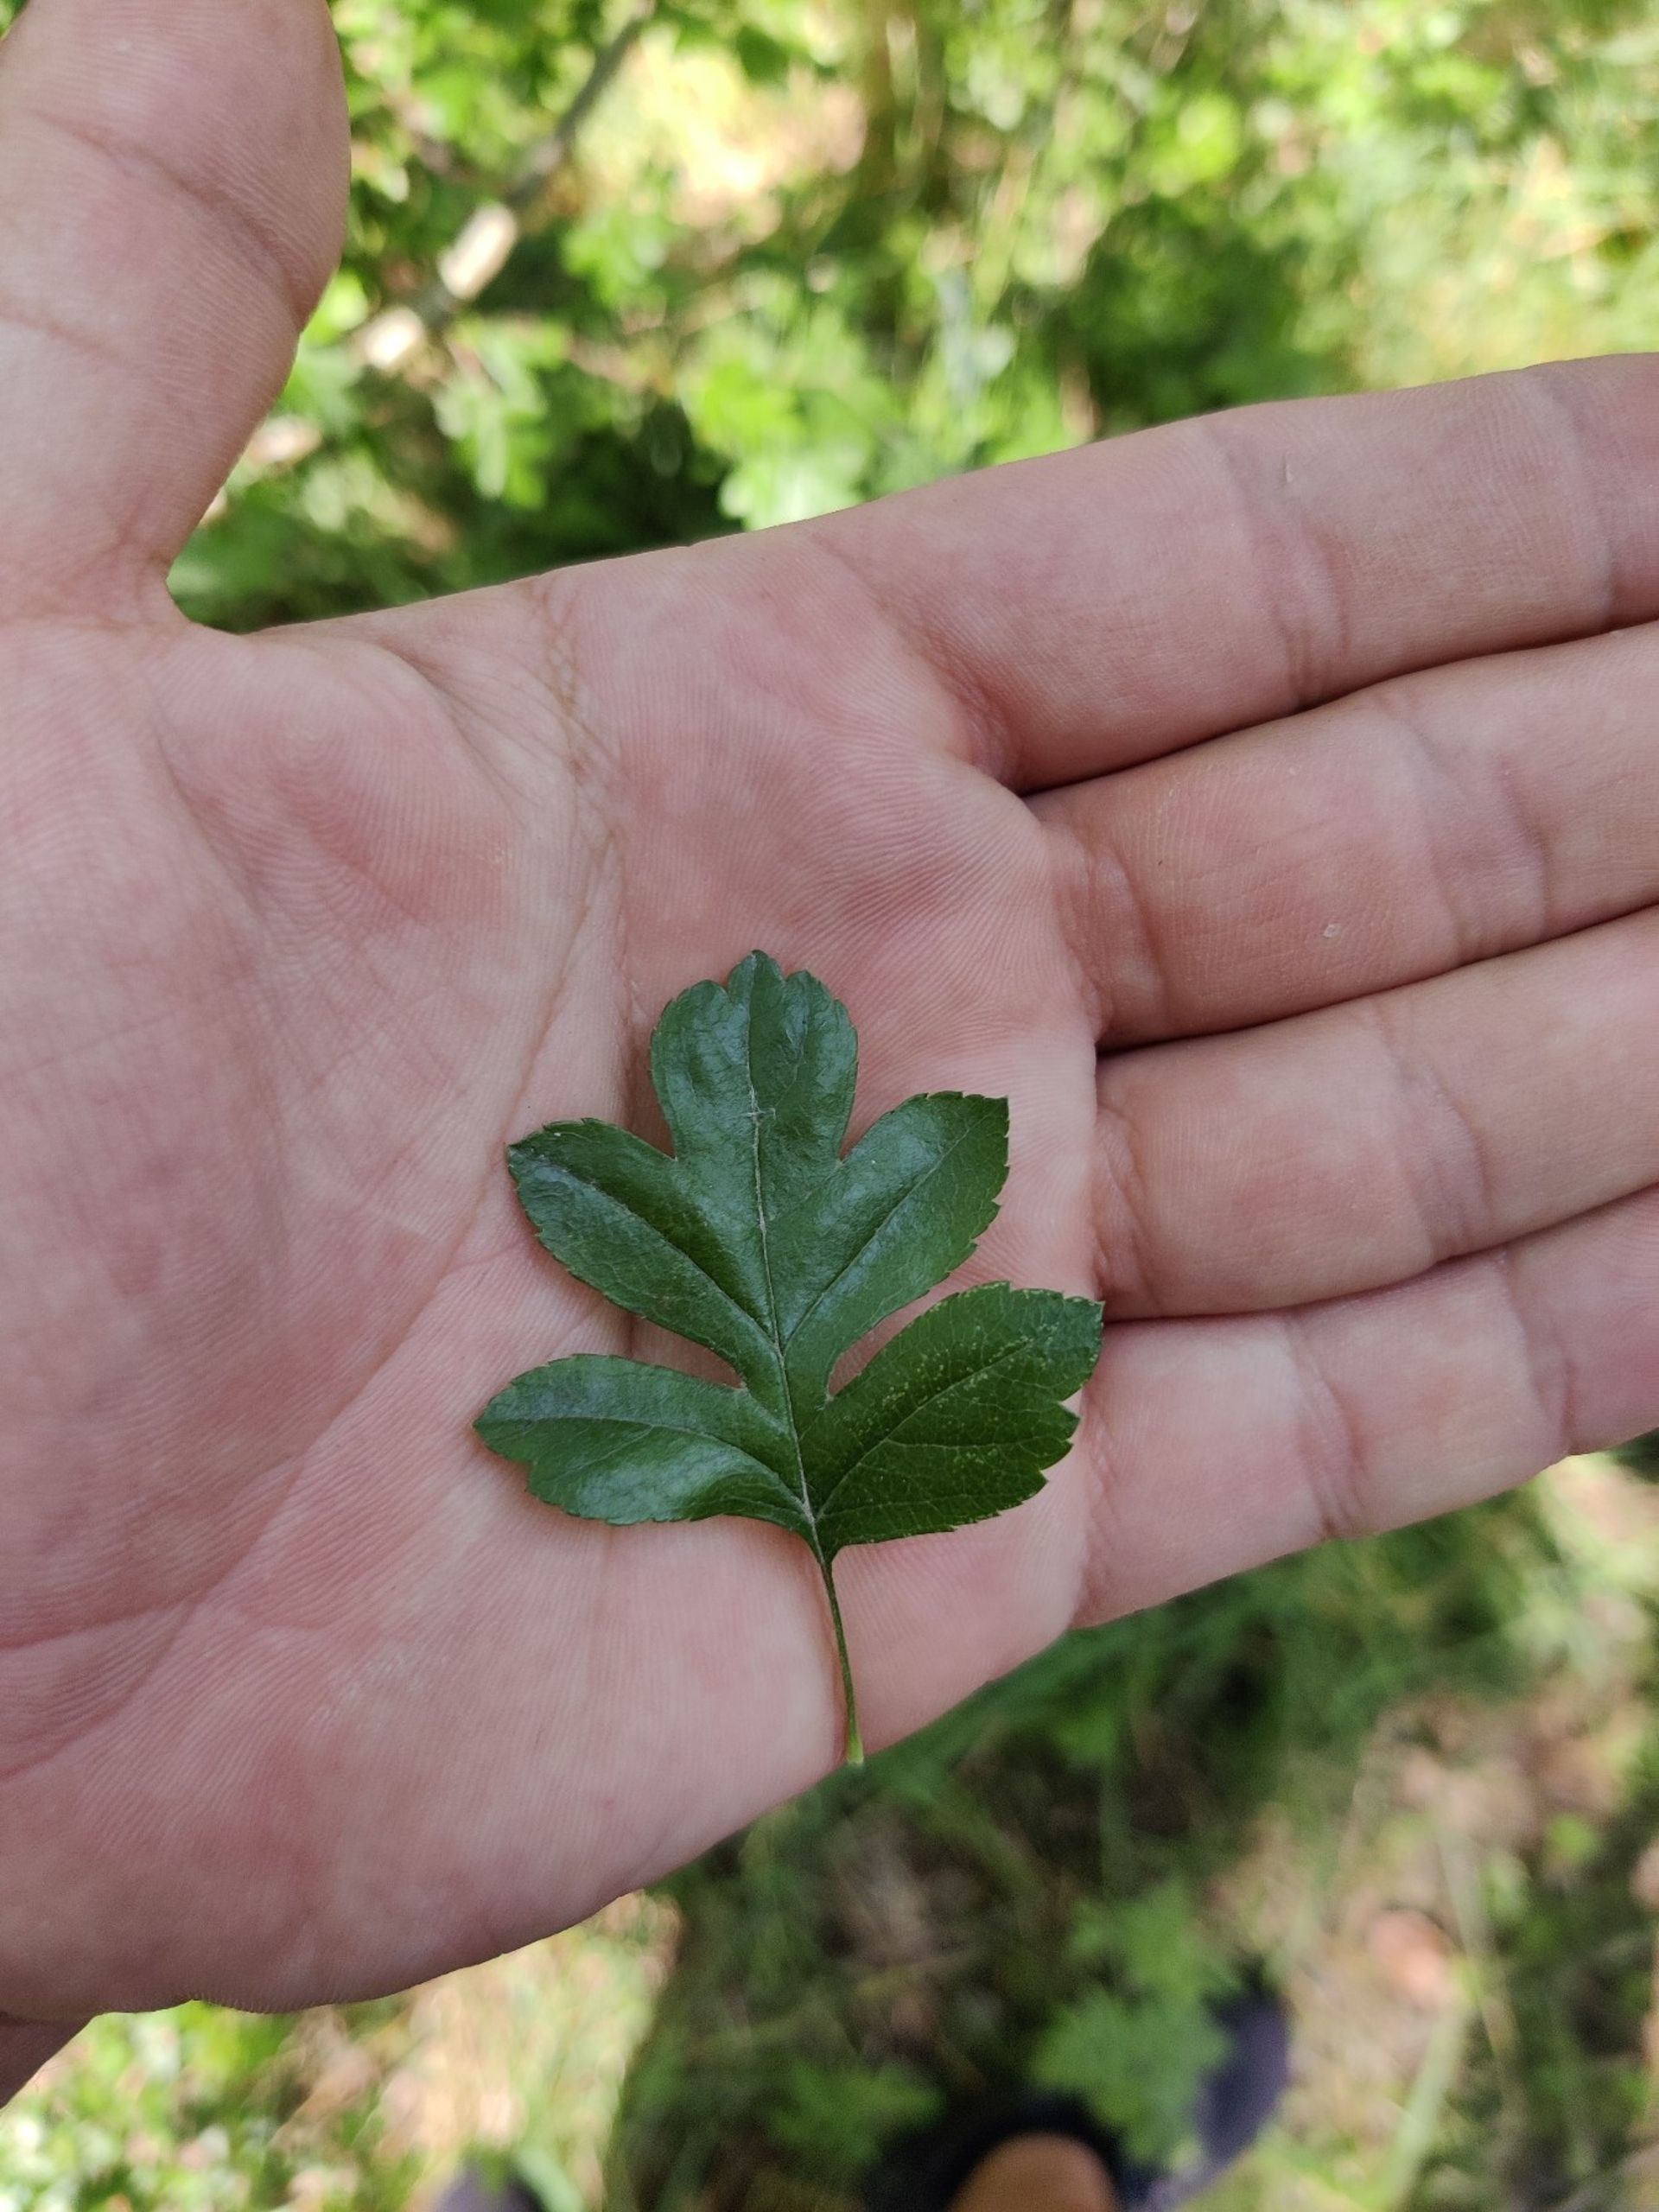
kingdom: Plantae
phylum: Tracheophyta
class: Magnoliopsida
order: Rosales
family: Rosaceae
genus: Crataegus
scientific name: Crataegus monogyna
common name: Engriflet hvidtjørn
